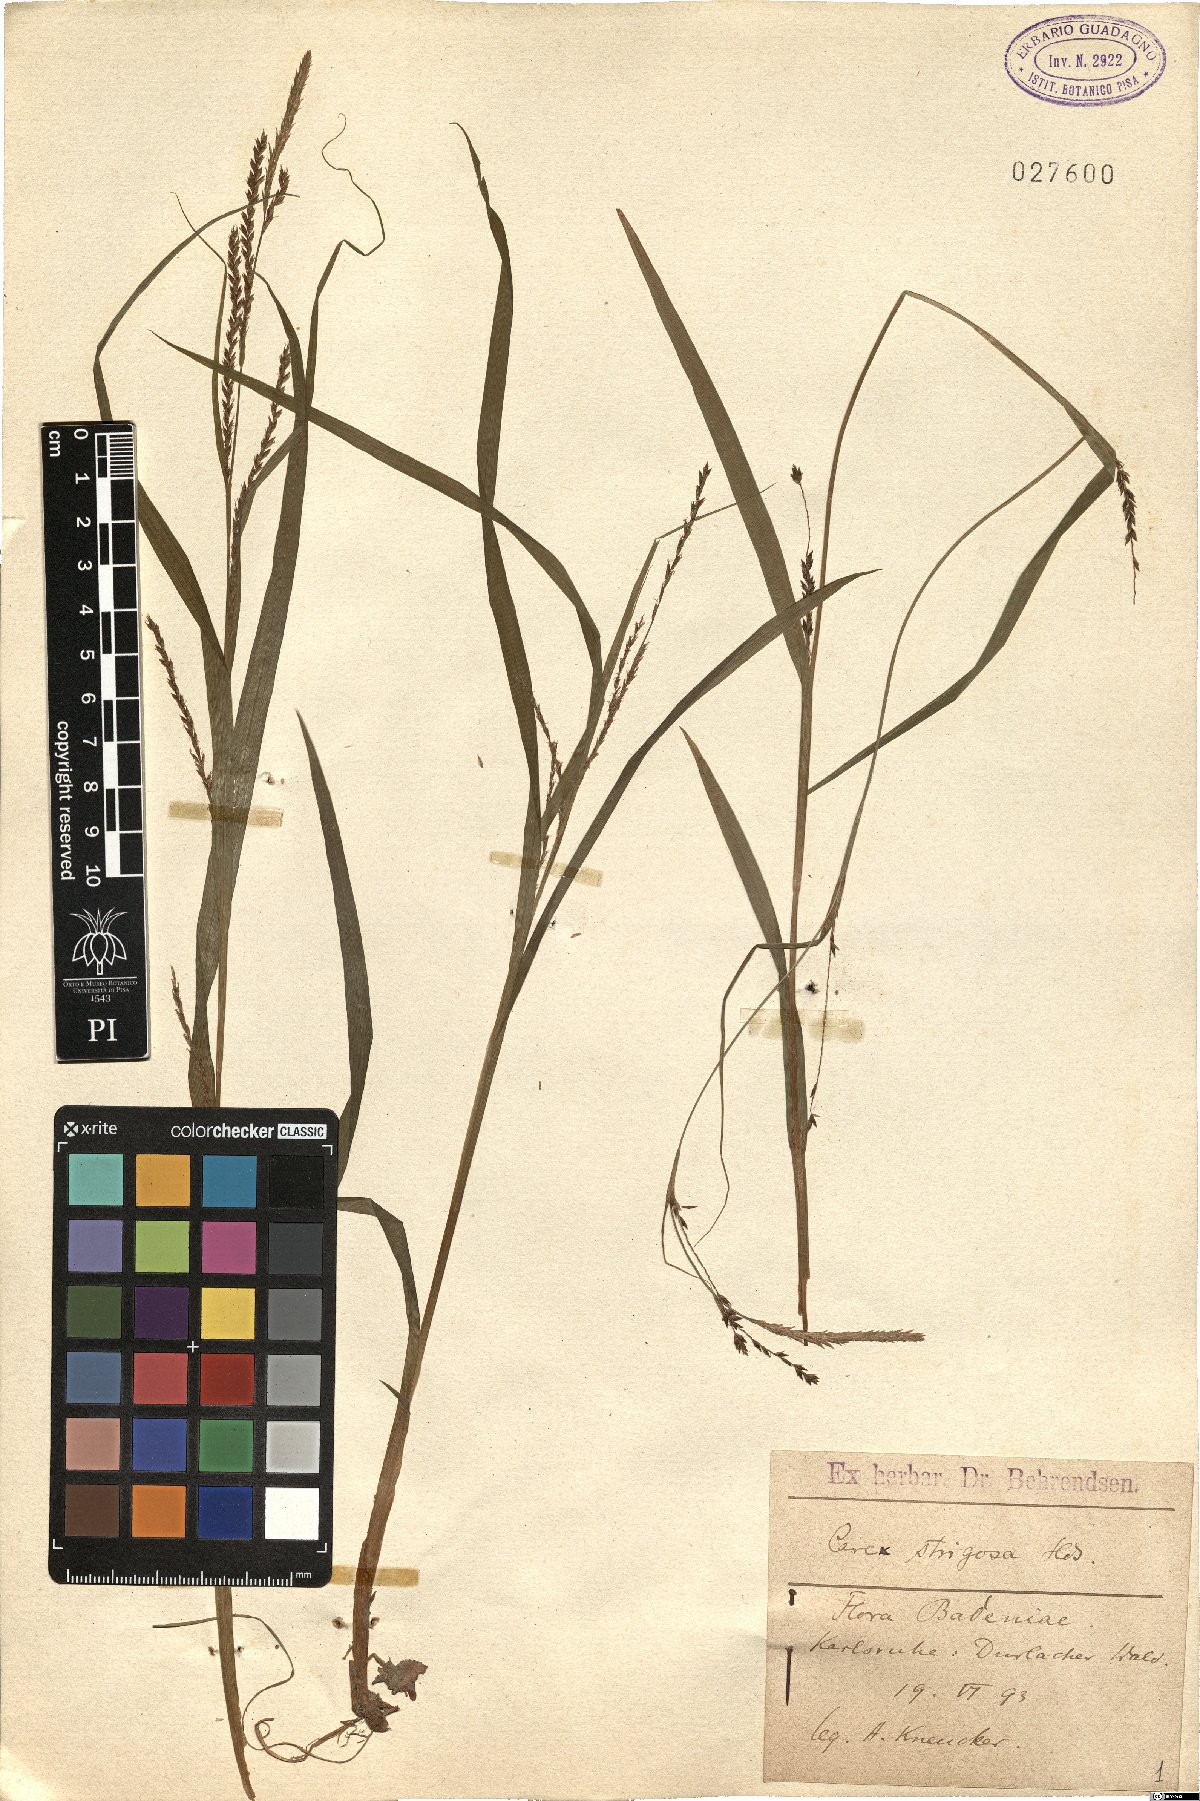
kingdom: Plantae
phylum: Tracheophyta
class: Liliopsida
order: Poales
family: Cyperaceae
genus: Carex
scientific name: Carex strigosa
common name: Thin-spiked wood-sedge
